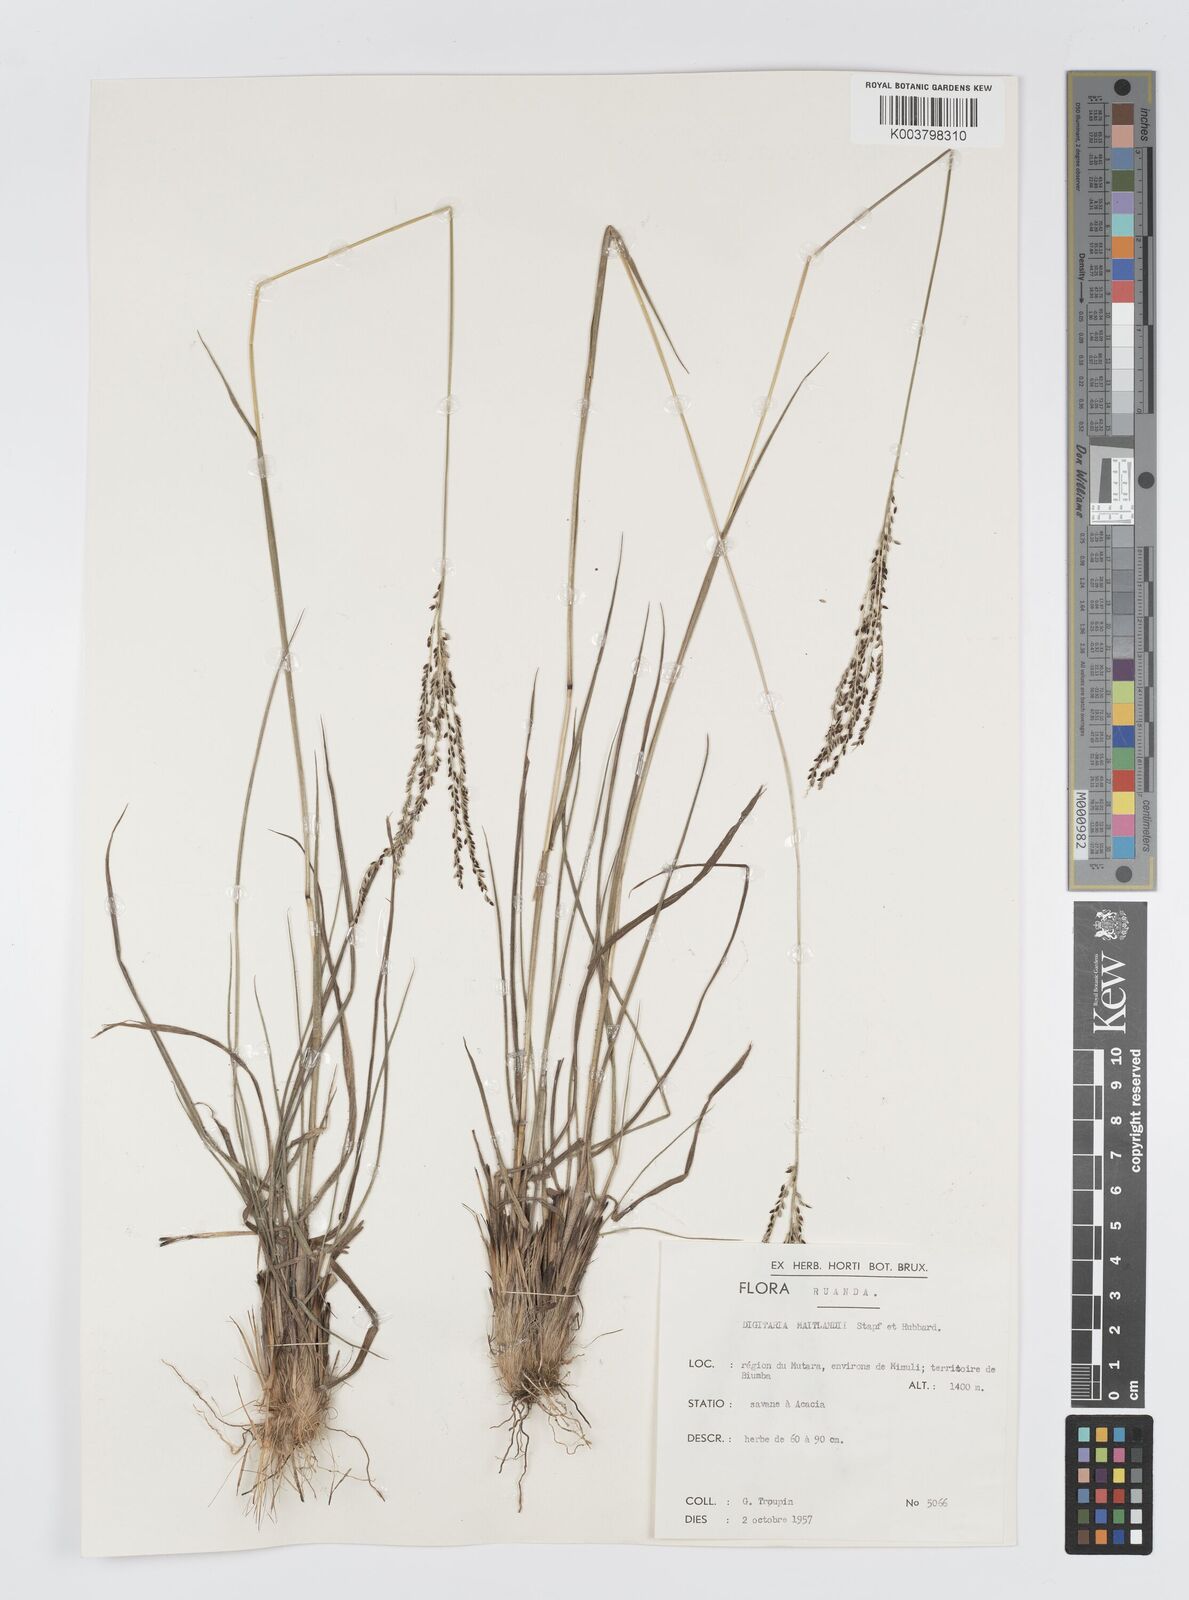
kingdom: Plantae
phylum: Tracheophyta
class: Liliopsida
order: Poales
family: Poaceae
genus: Digitaria
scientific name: Digitaria maitlandii
